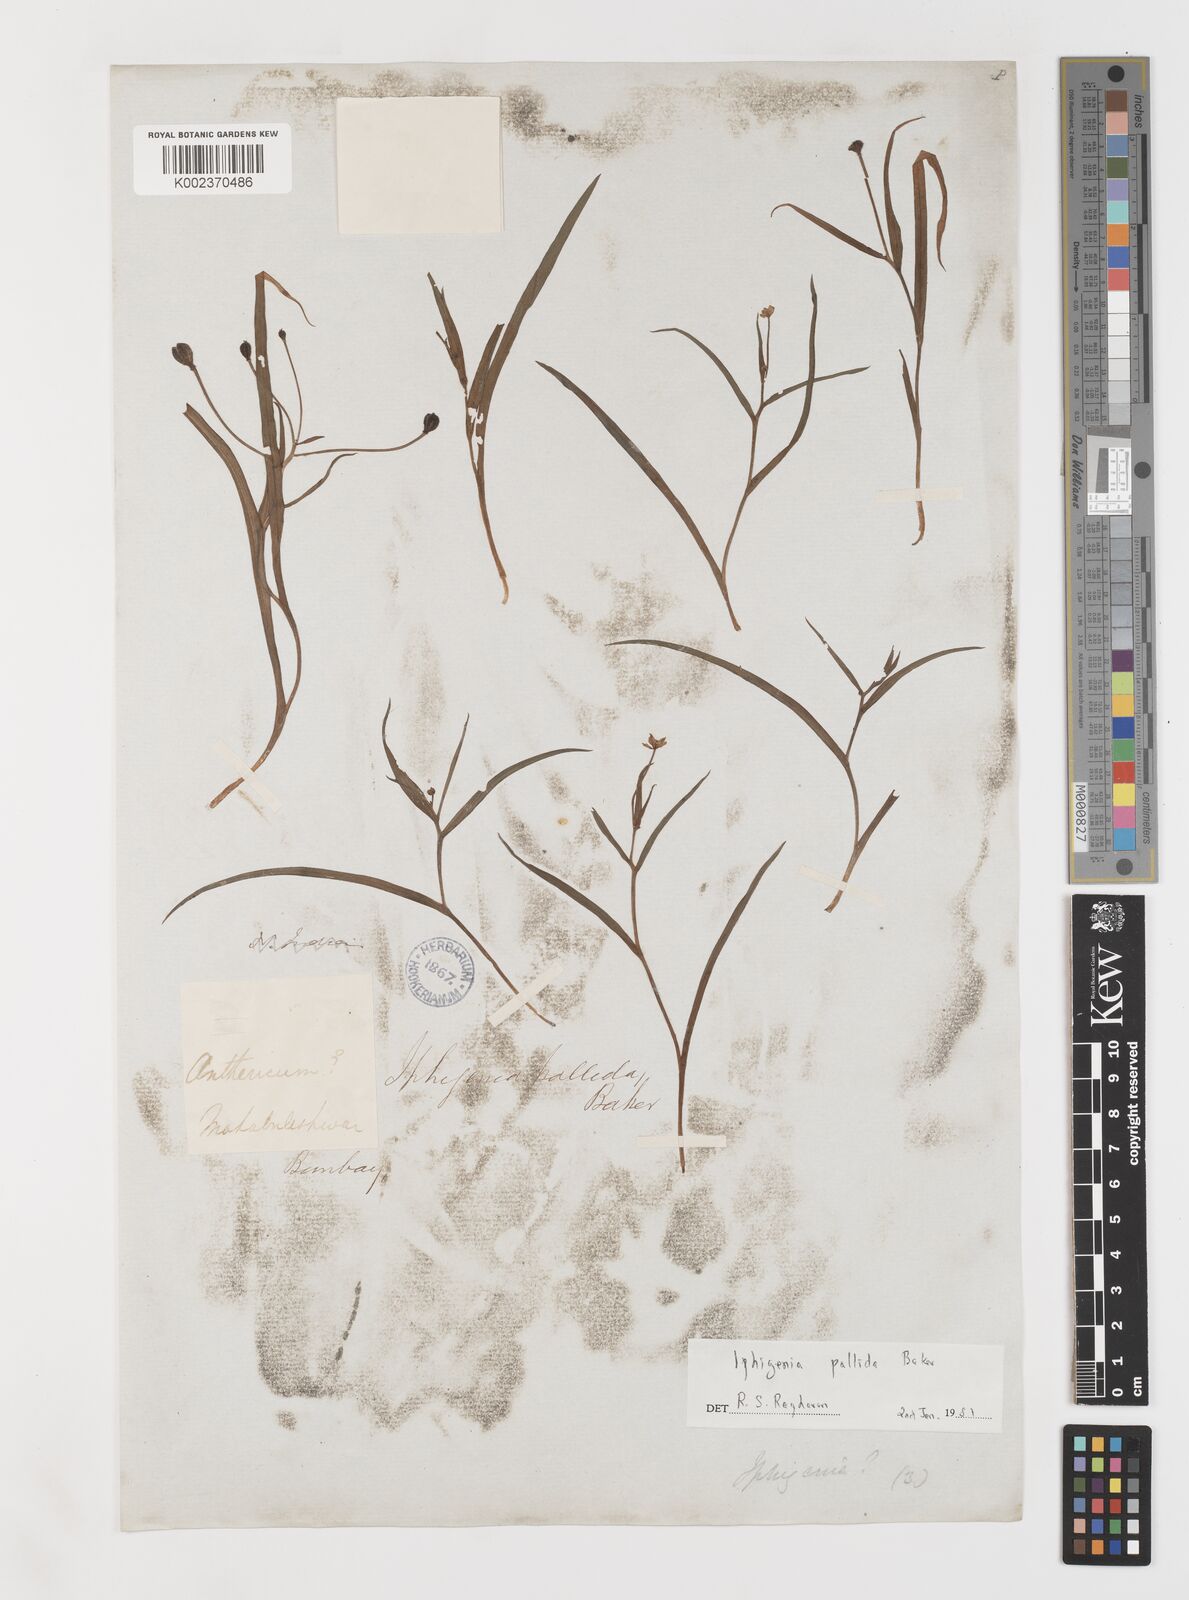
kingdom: Plantae
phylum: Tracheophyta
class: Liliopsida
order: Liliales
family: Colchicaceae
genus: Iphigenia
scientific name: Iphigenia pallida
